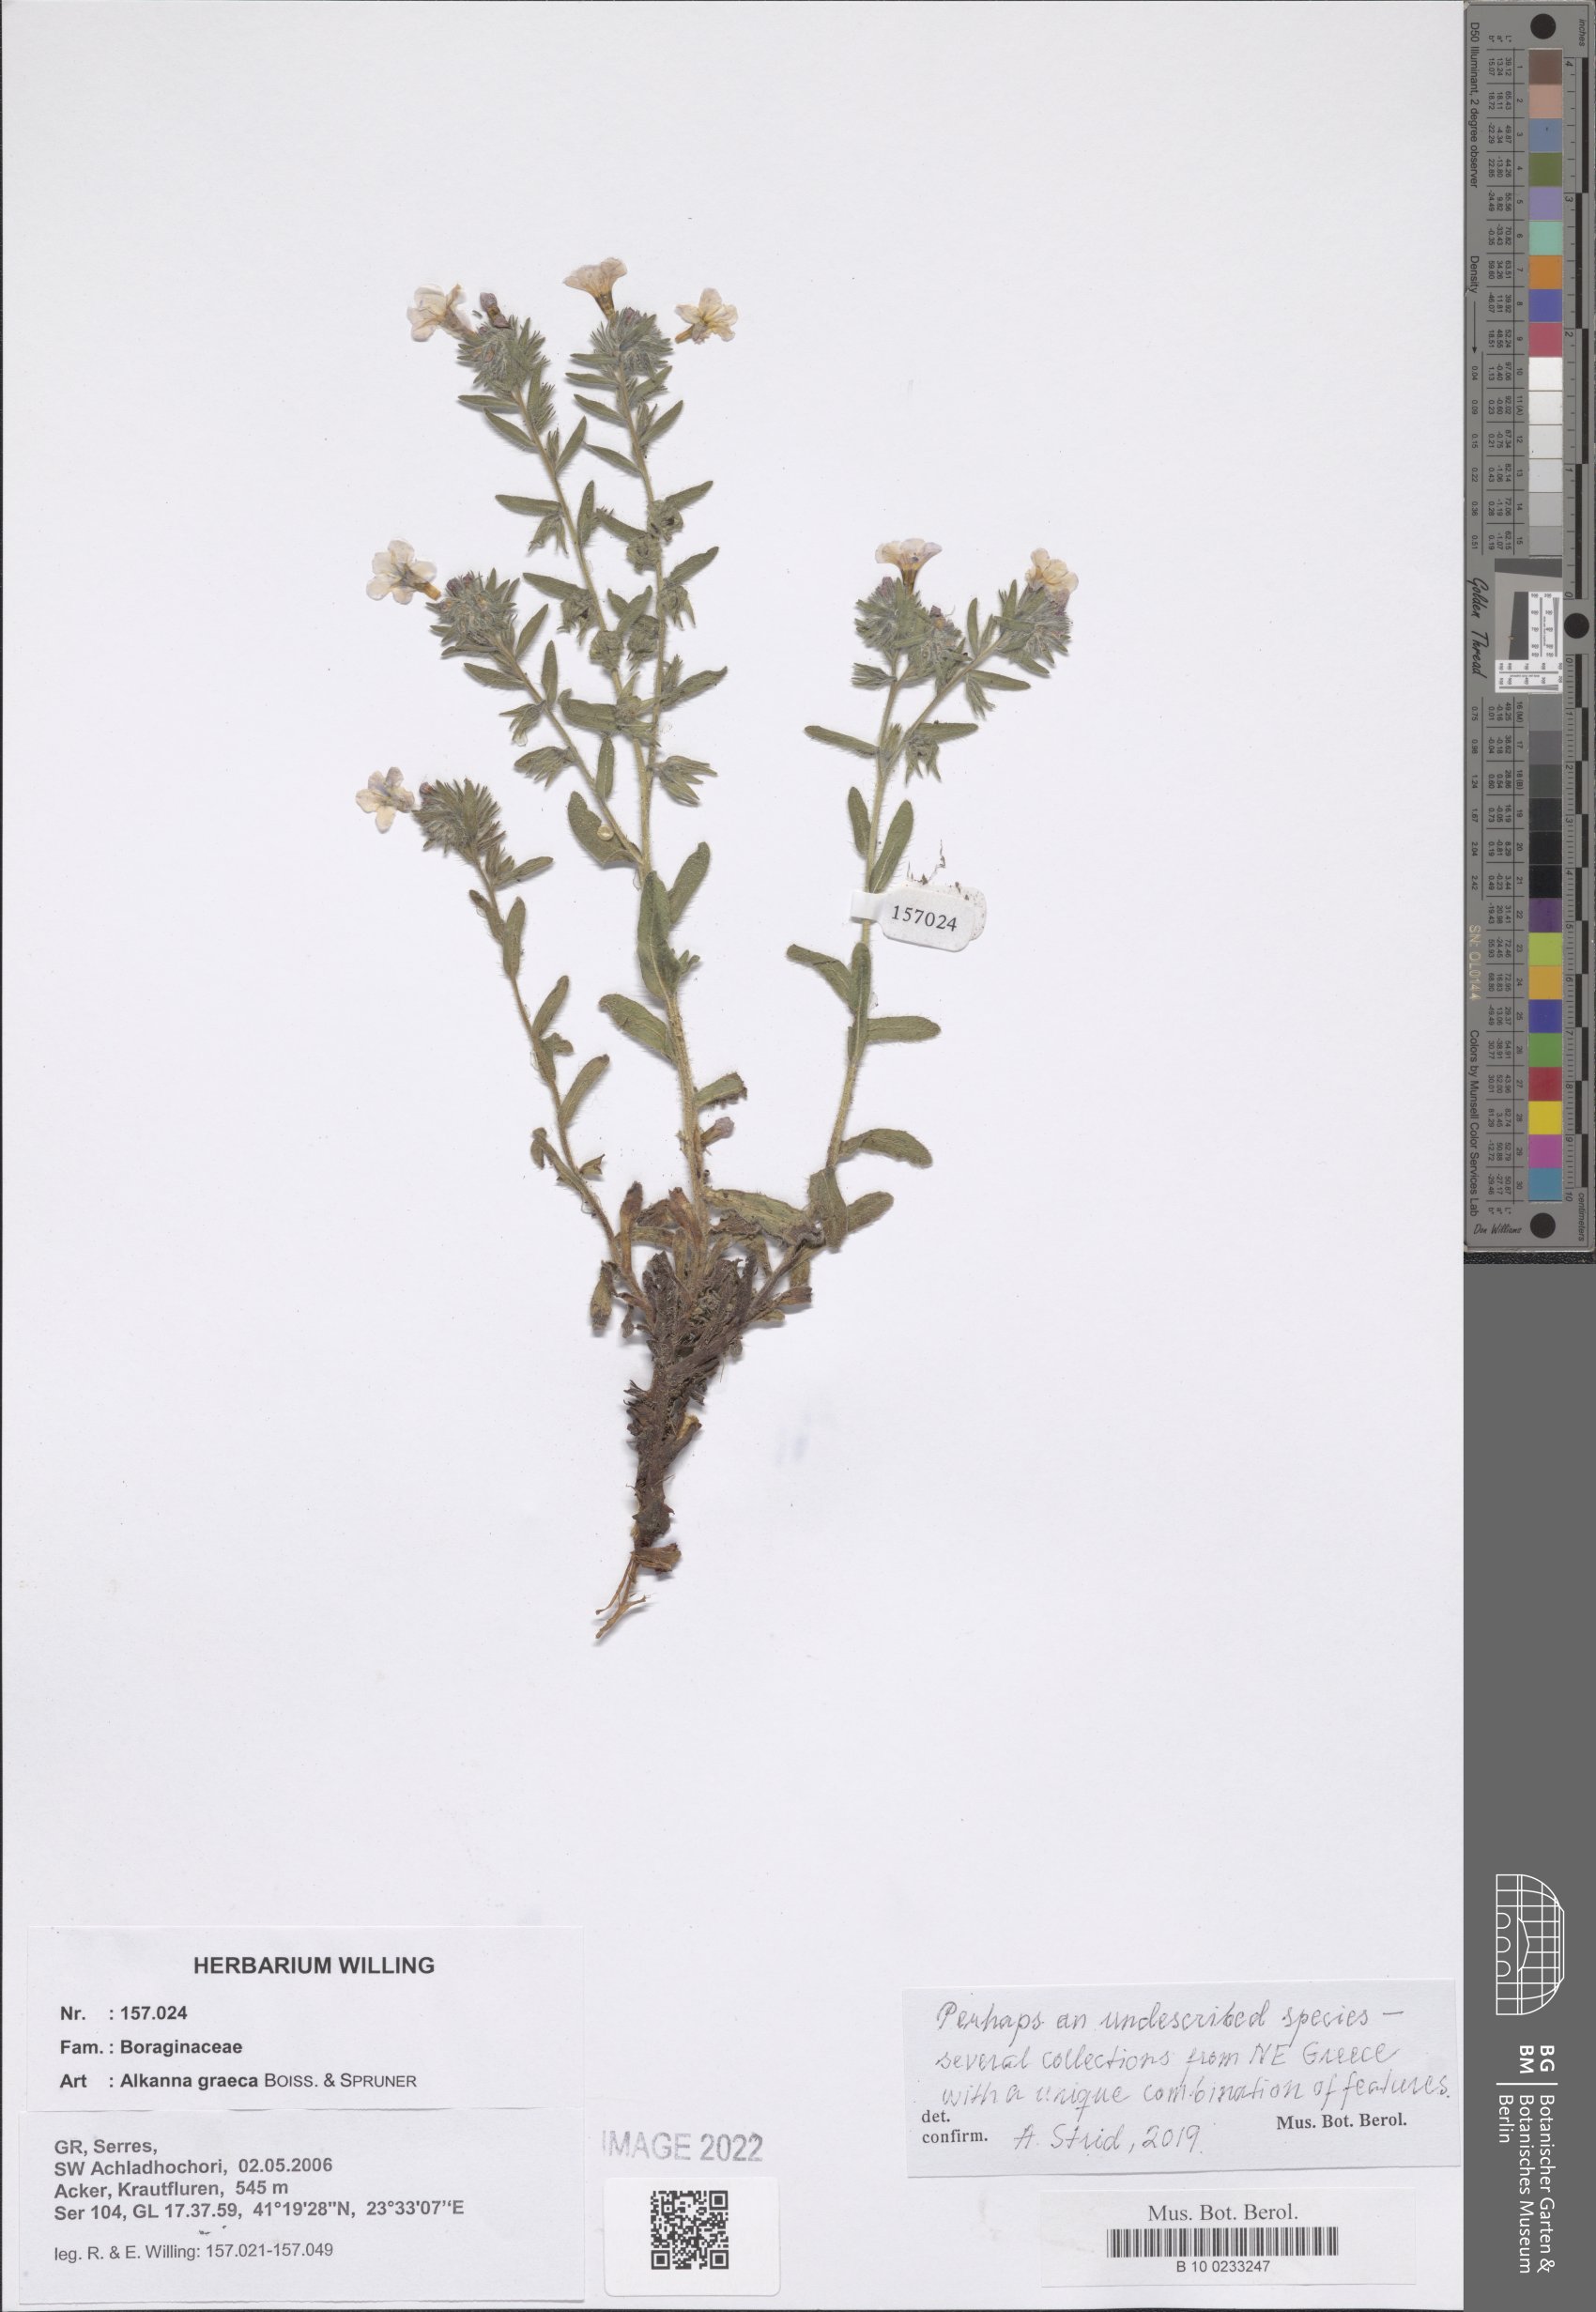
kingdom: Plantae
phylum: Tracheophyta
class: Magnoliopsida
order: Boraginales
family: Boraginaceae
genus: Alkanna
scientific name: Alkanna graeca
